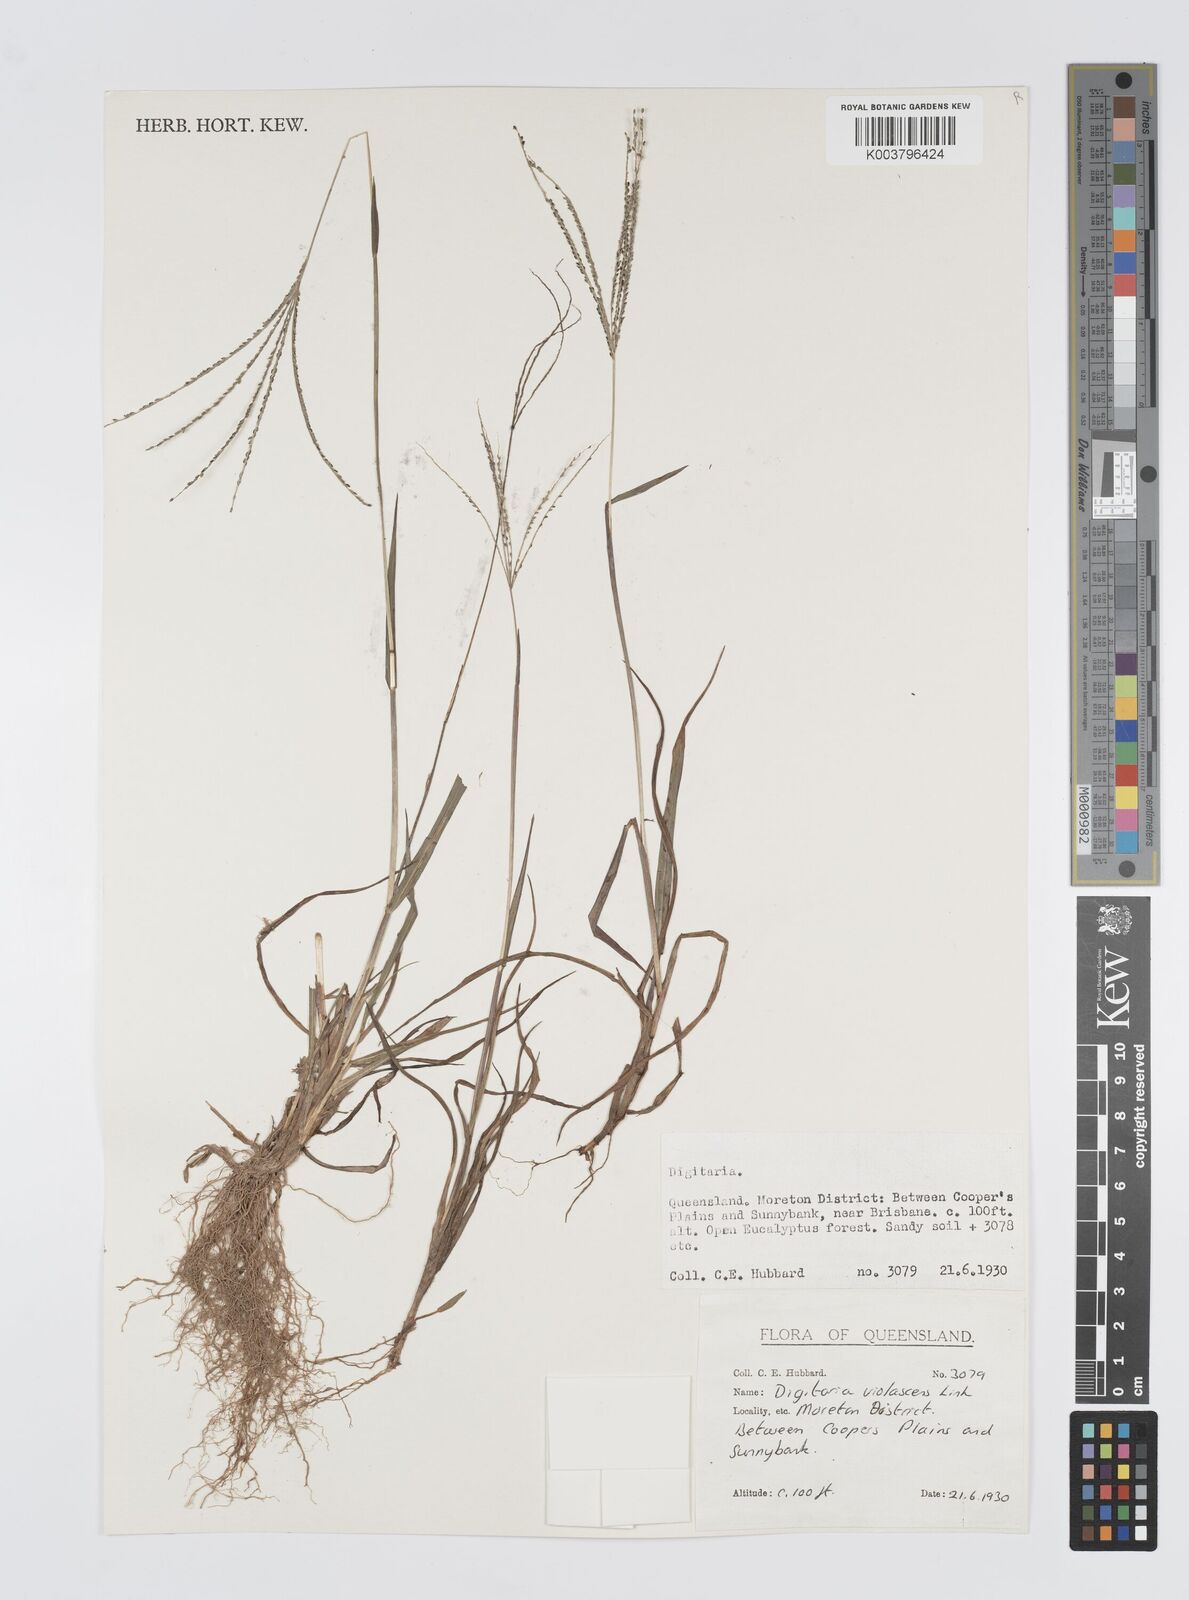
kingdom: Plantae
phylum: Tracheophyta
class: Liliopsida
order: Poales
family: Poaceae
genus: Digitaria
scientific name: Digitaria violascens
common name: Violet crabgrass
